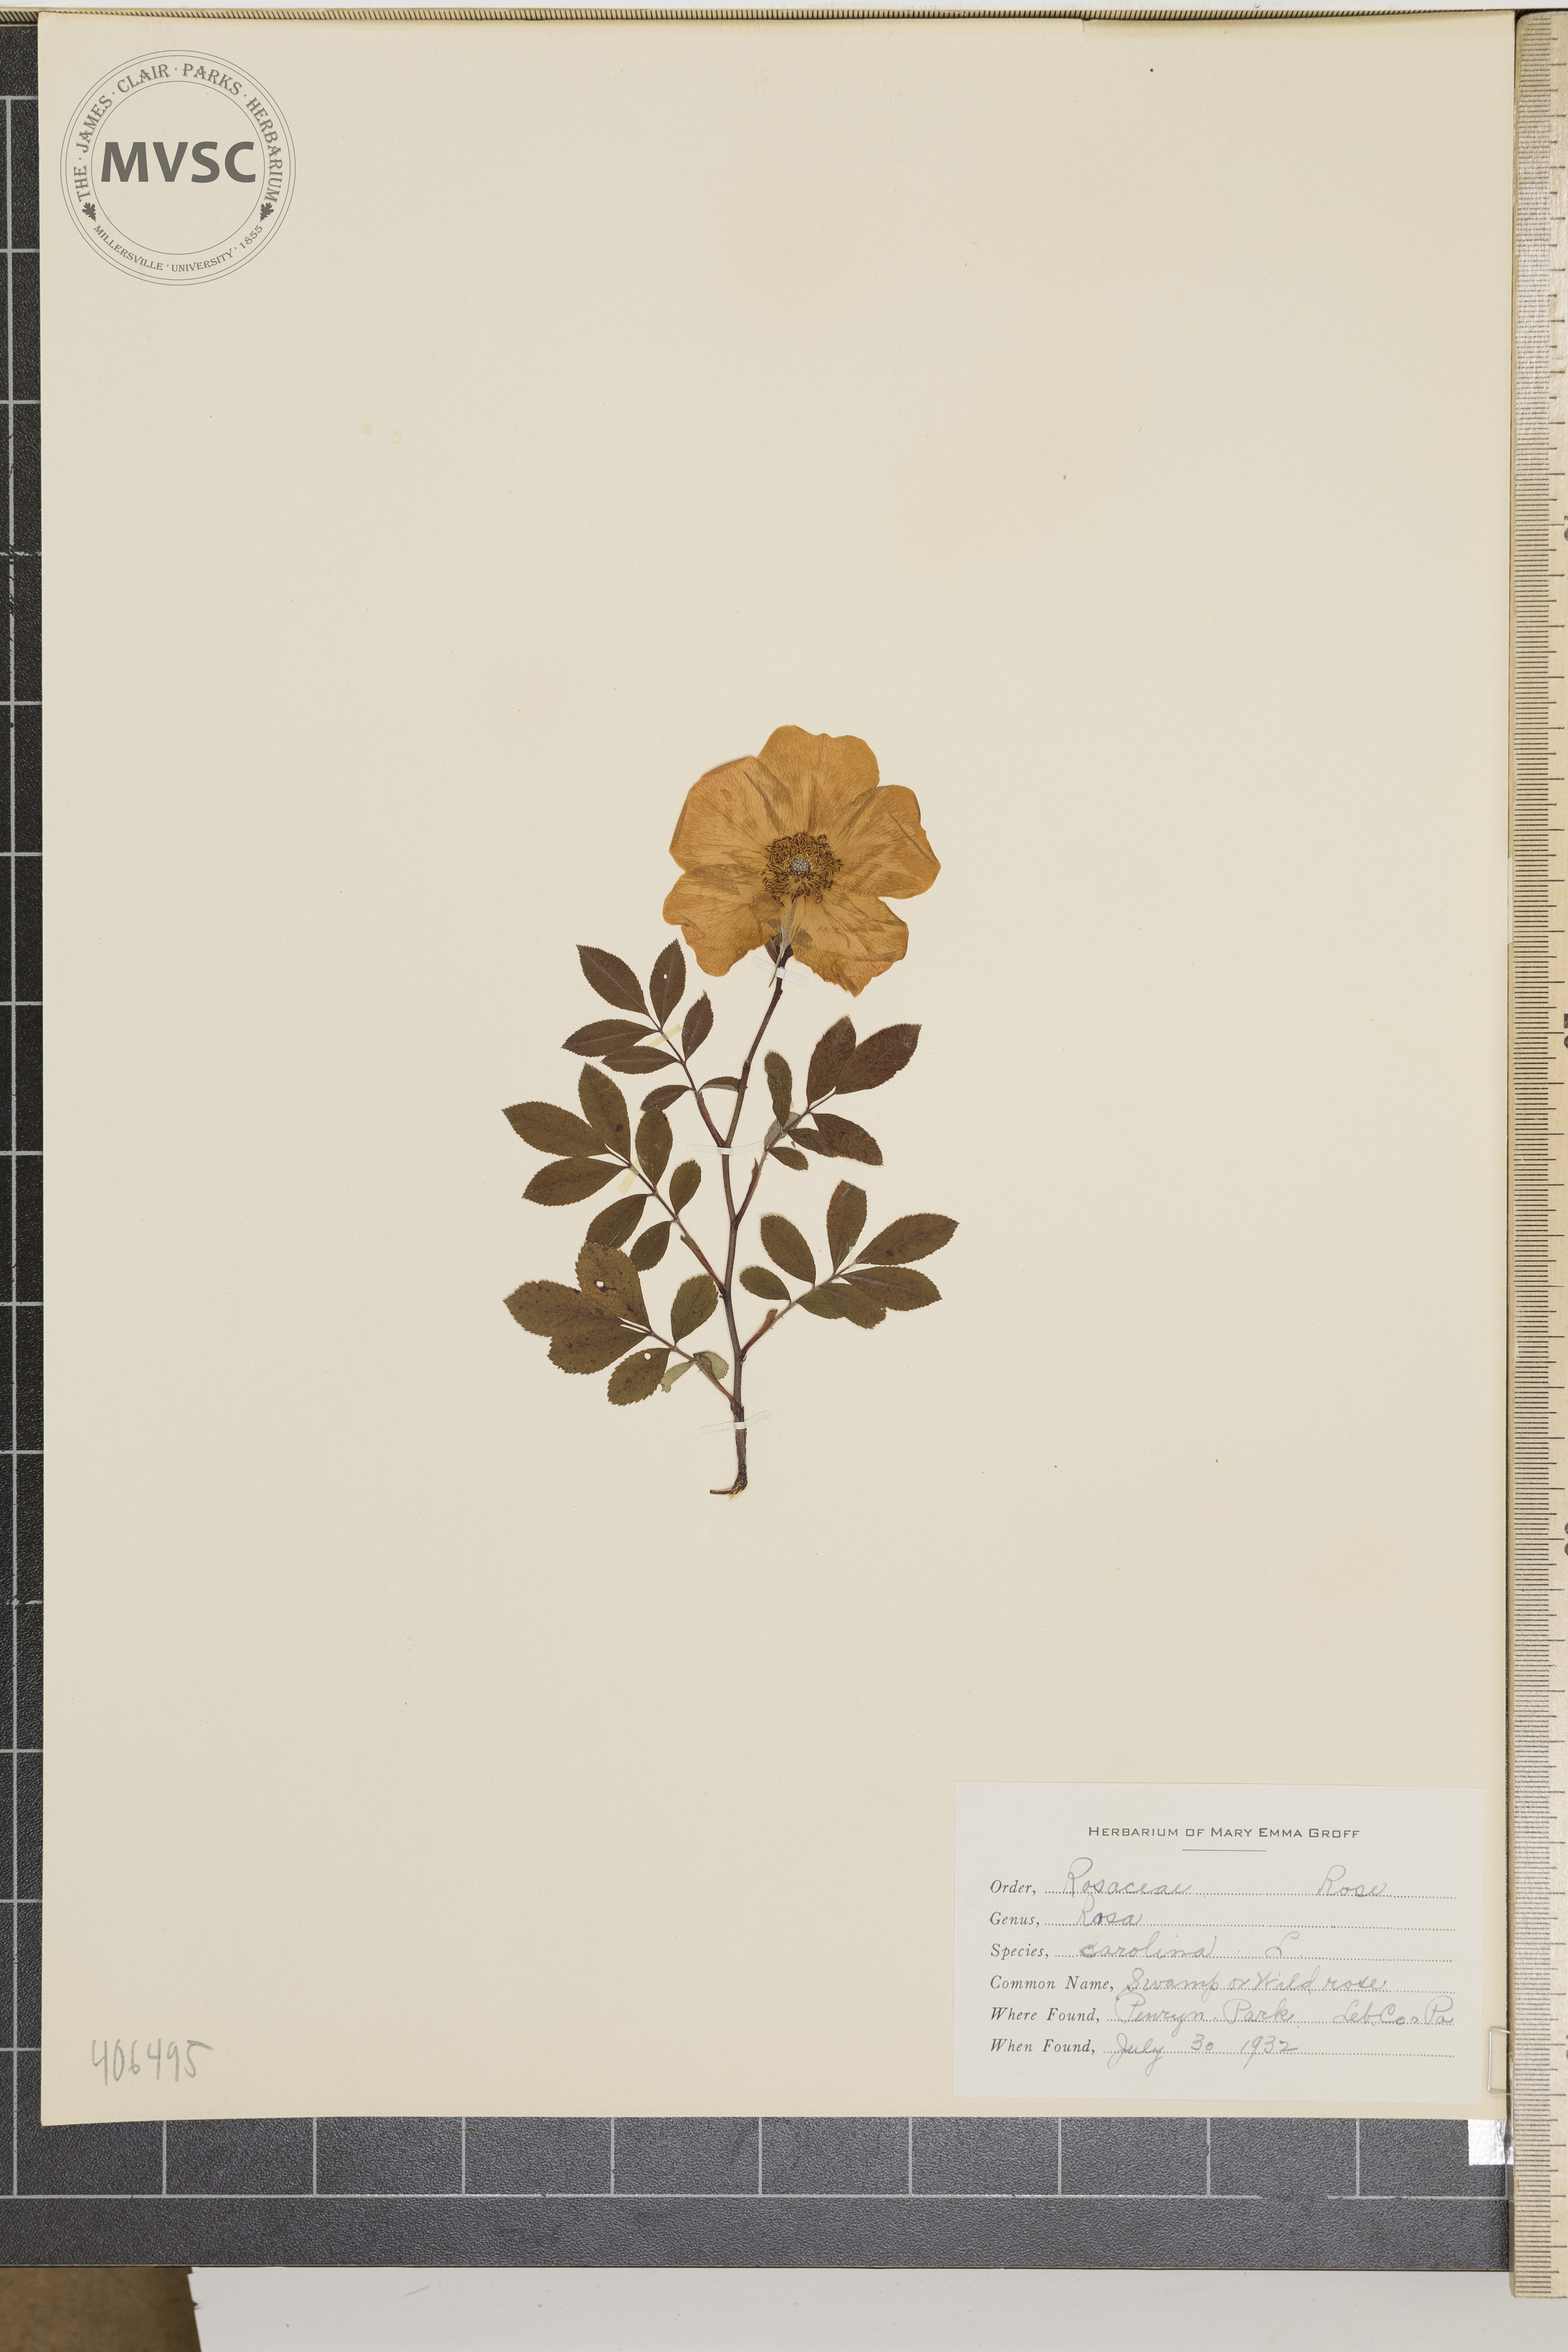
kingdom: Plantae
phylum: Tracheophyta
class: Magnoliopsida
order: Rosales
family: Rosaceae
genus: Rosa
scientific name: Rosa carolina
